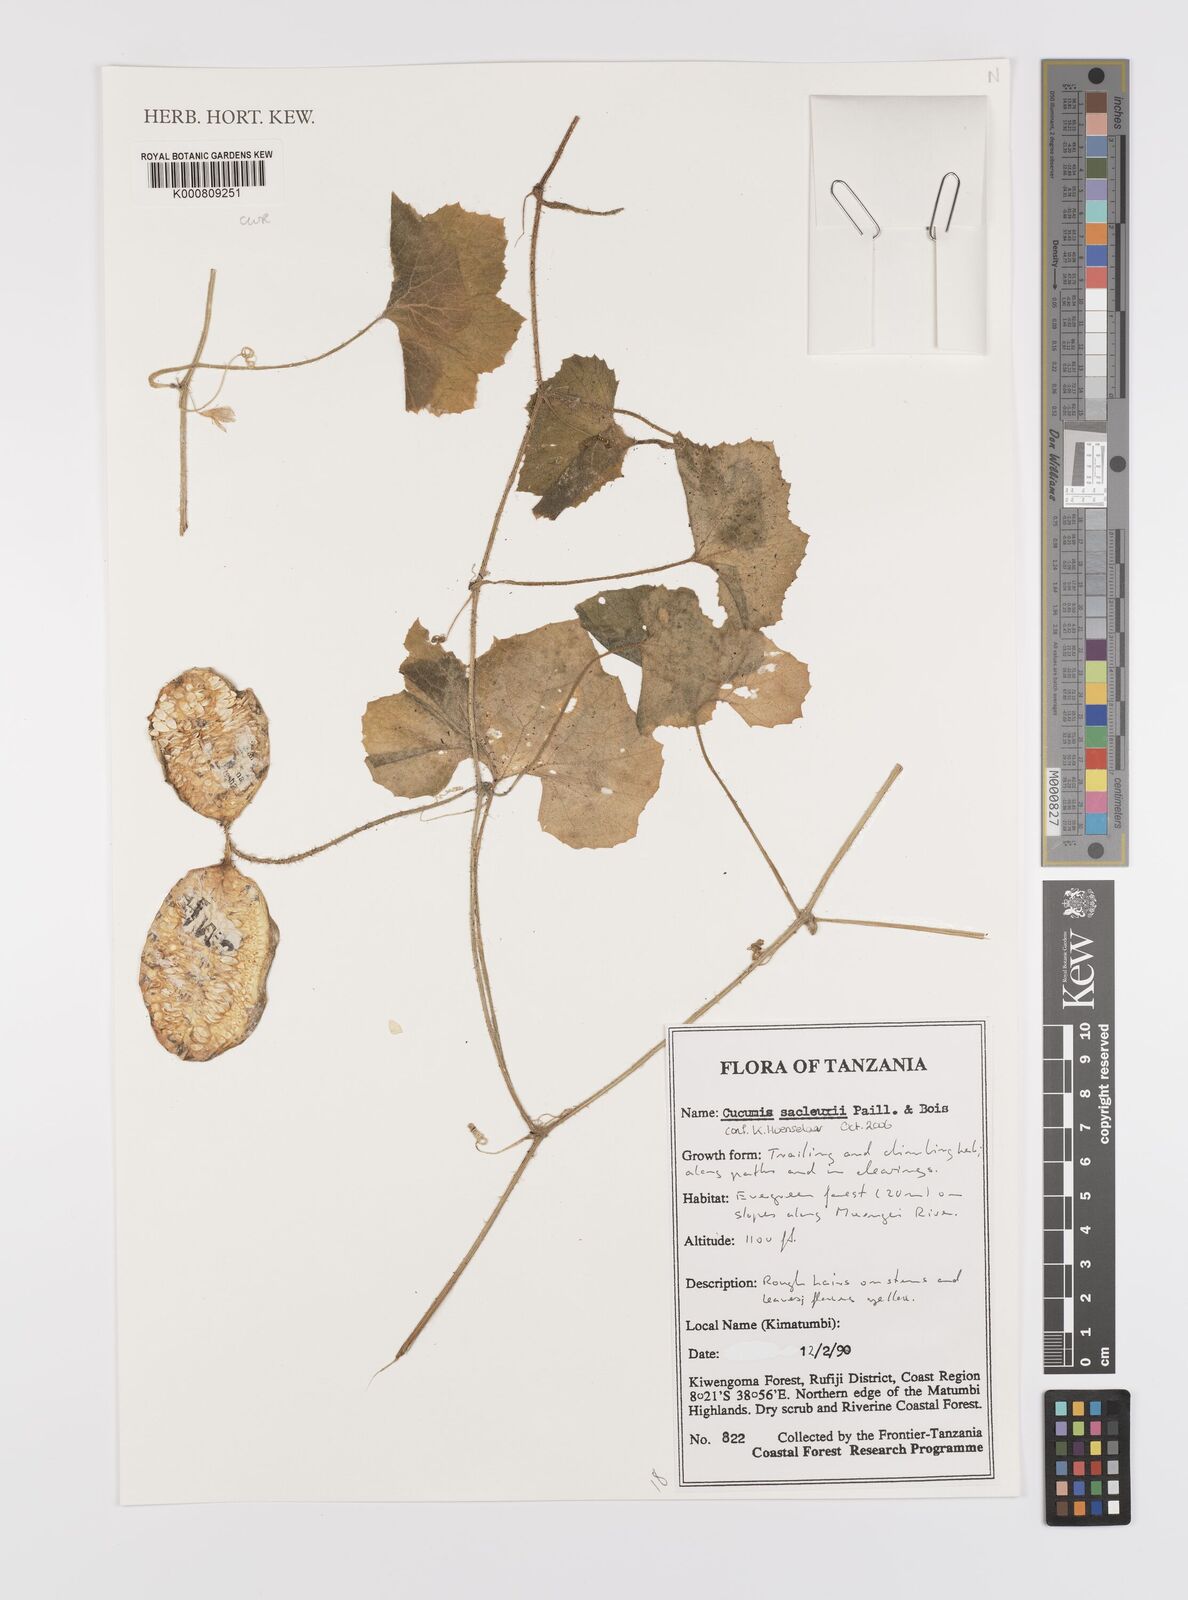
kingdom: Plantae
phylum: Tracheophyta
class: Magnoliopsida
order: Cucurbitales
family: Cucurbitaceae
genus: Cucumis
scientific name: Cucumis sacleuxii
